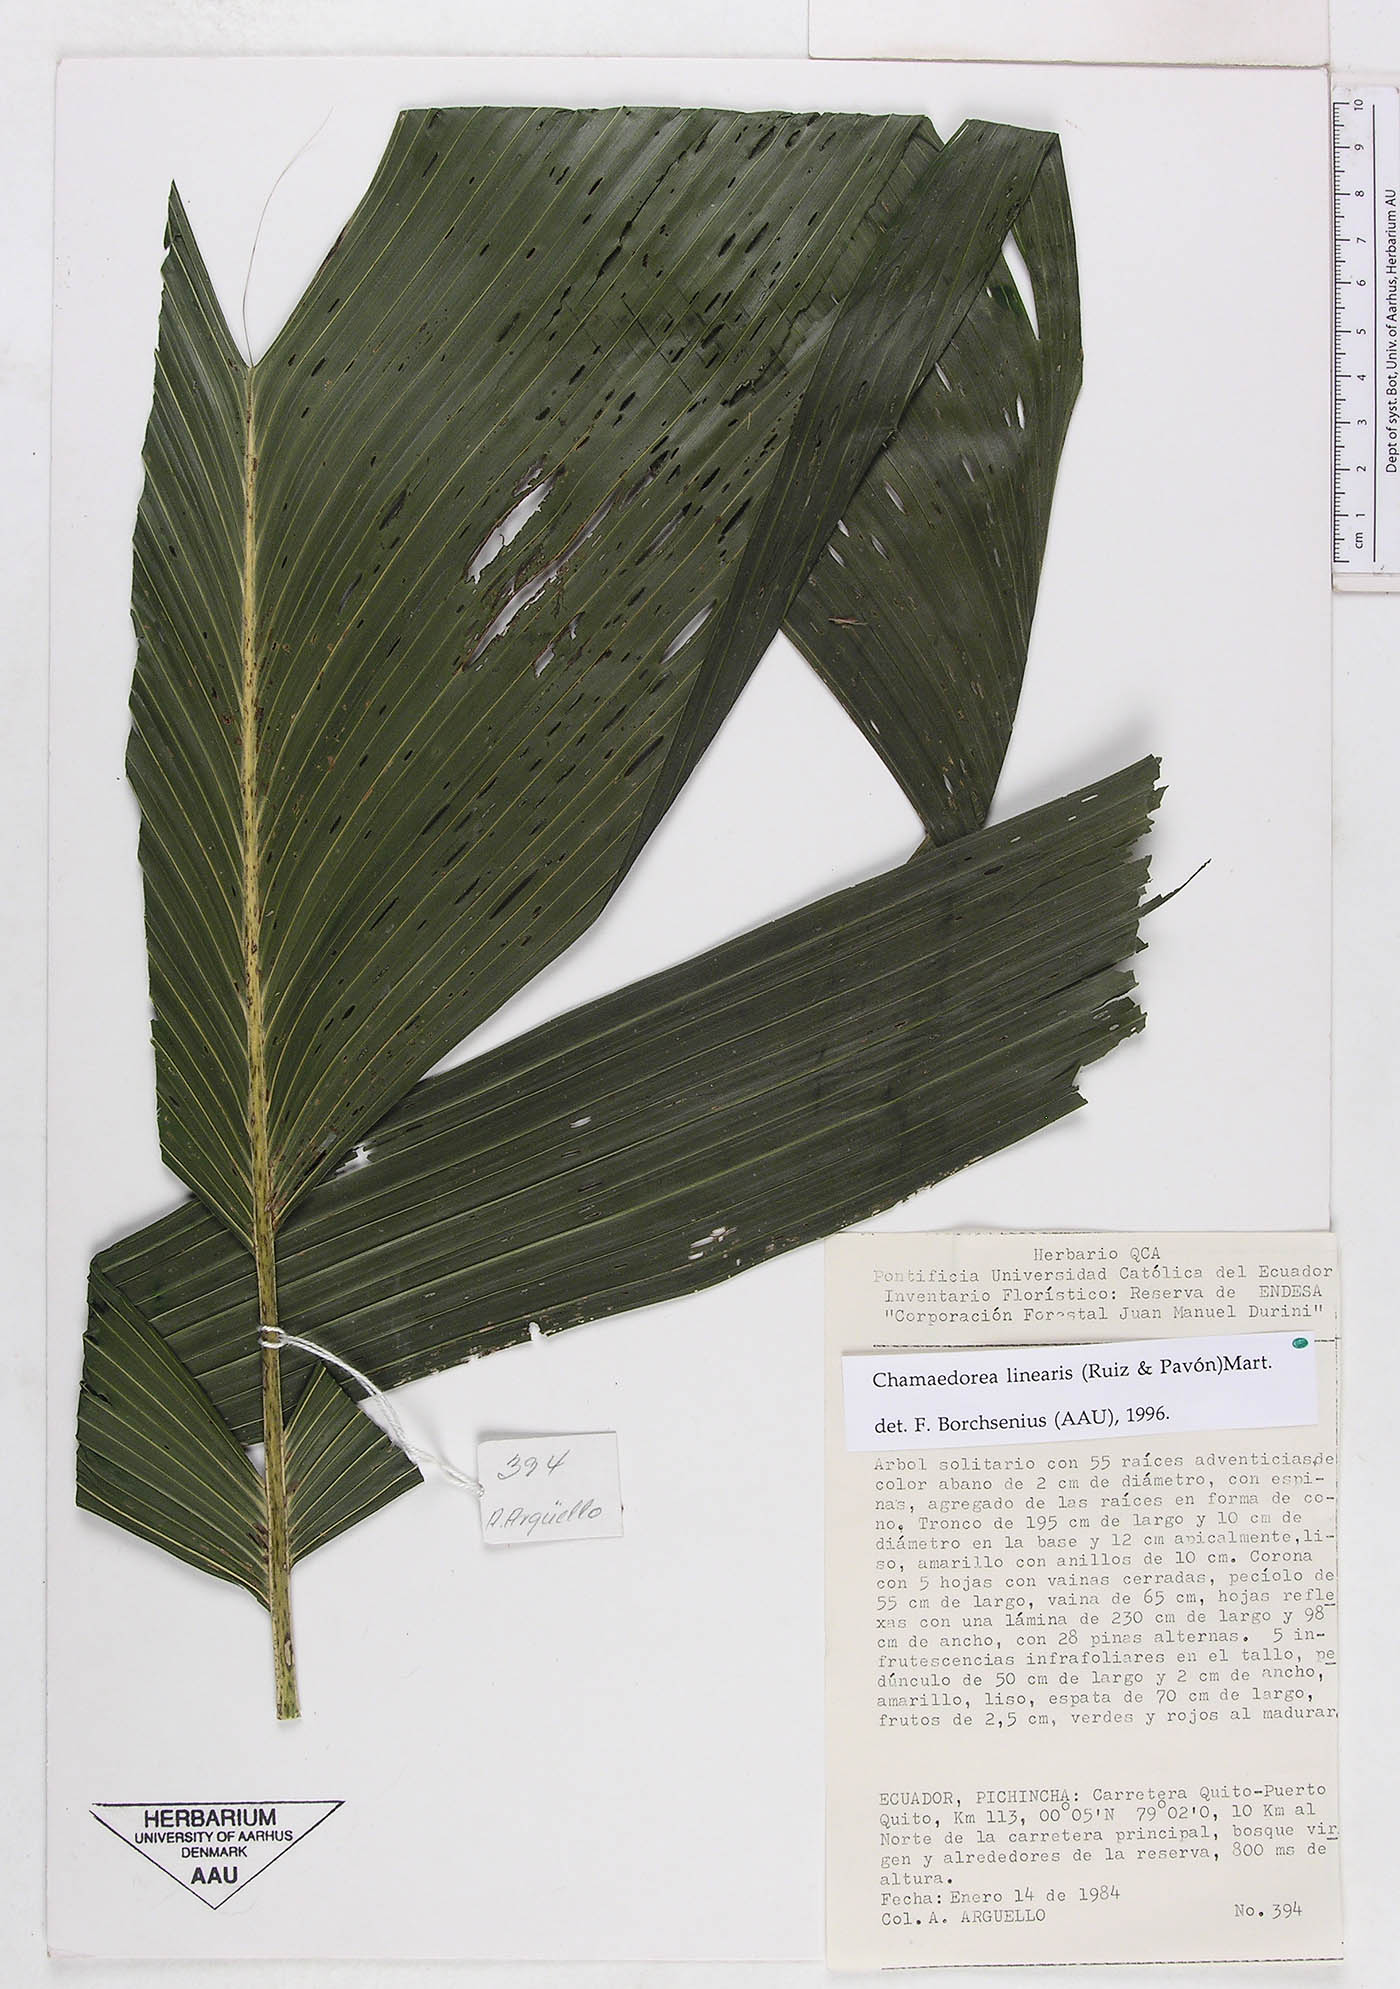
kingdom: Plantae
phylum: Tracheophyta
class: Liliopsida
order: Arecales
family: Arecaceae
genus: Chamaedorea
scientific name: Chamaedorea linearis
